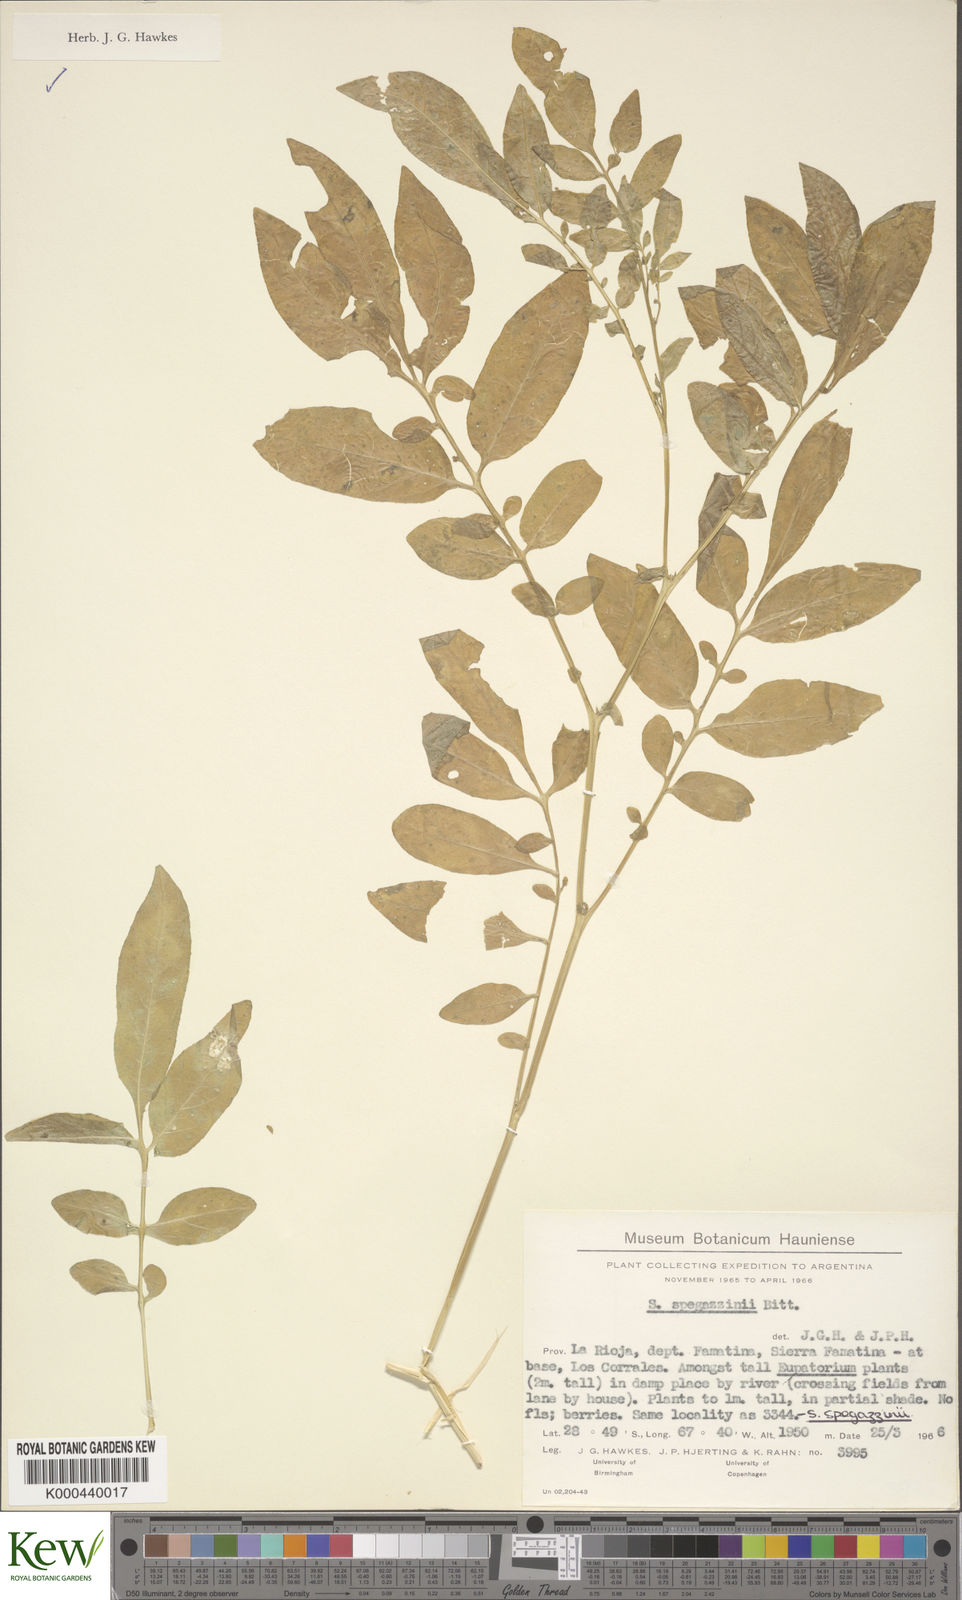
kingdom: Plantae
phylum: Tracheophyta
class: Magnoliopsida
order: Solanales
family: Solanaceae
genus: Solanum
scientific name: Solanum brevicaule
